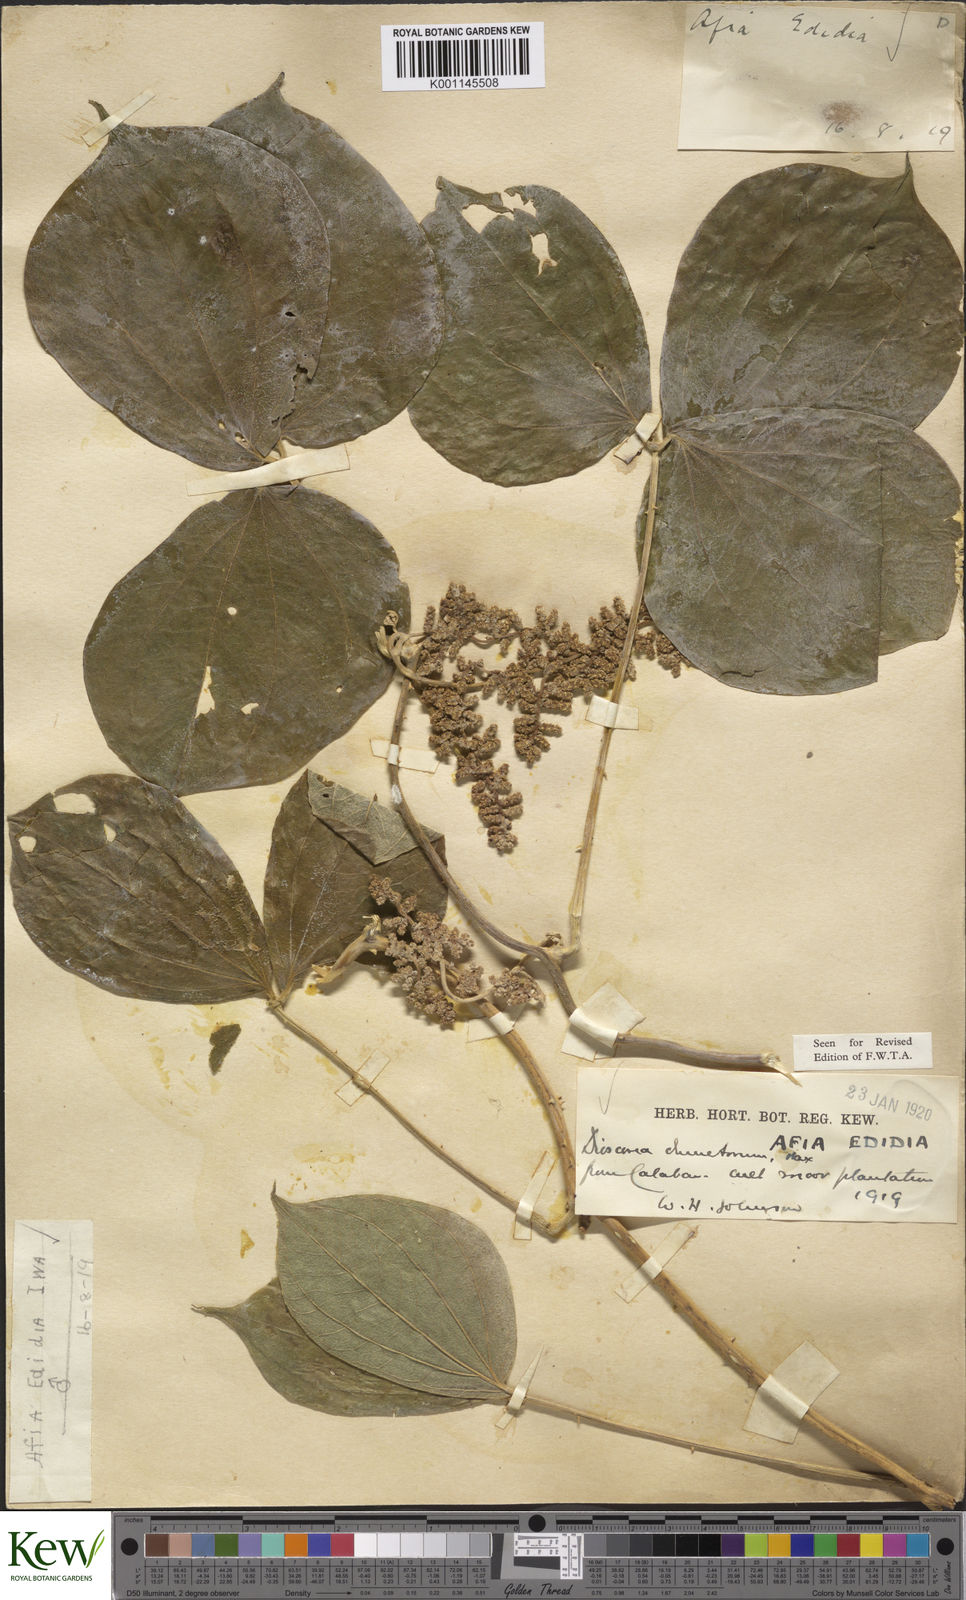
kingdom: Plantae
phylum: Tracheophyta
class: Liliopsida
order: Dioscoreales
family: Dioscoreaceae
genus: Dioscorea
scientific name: Dioscorea dumetorum
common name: African bitter yam
